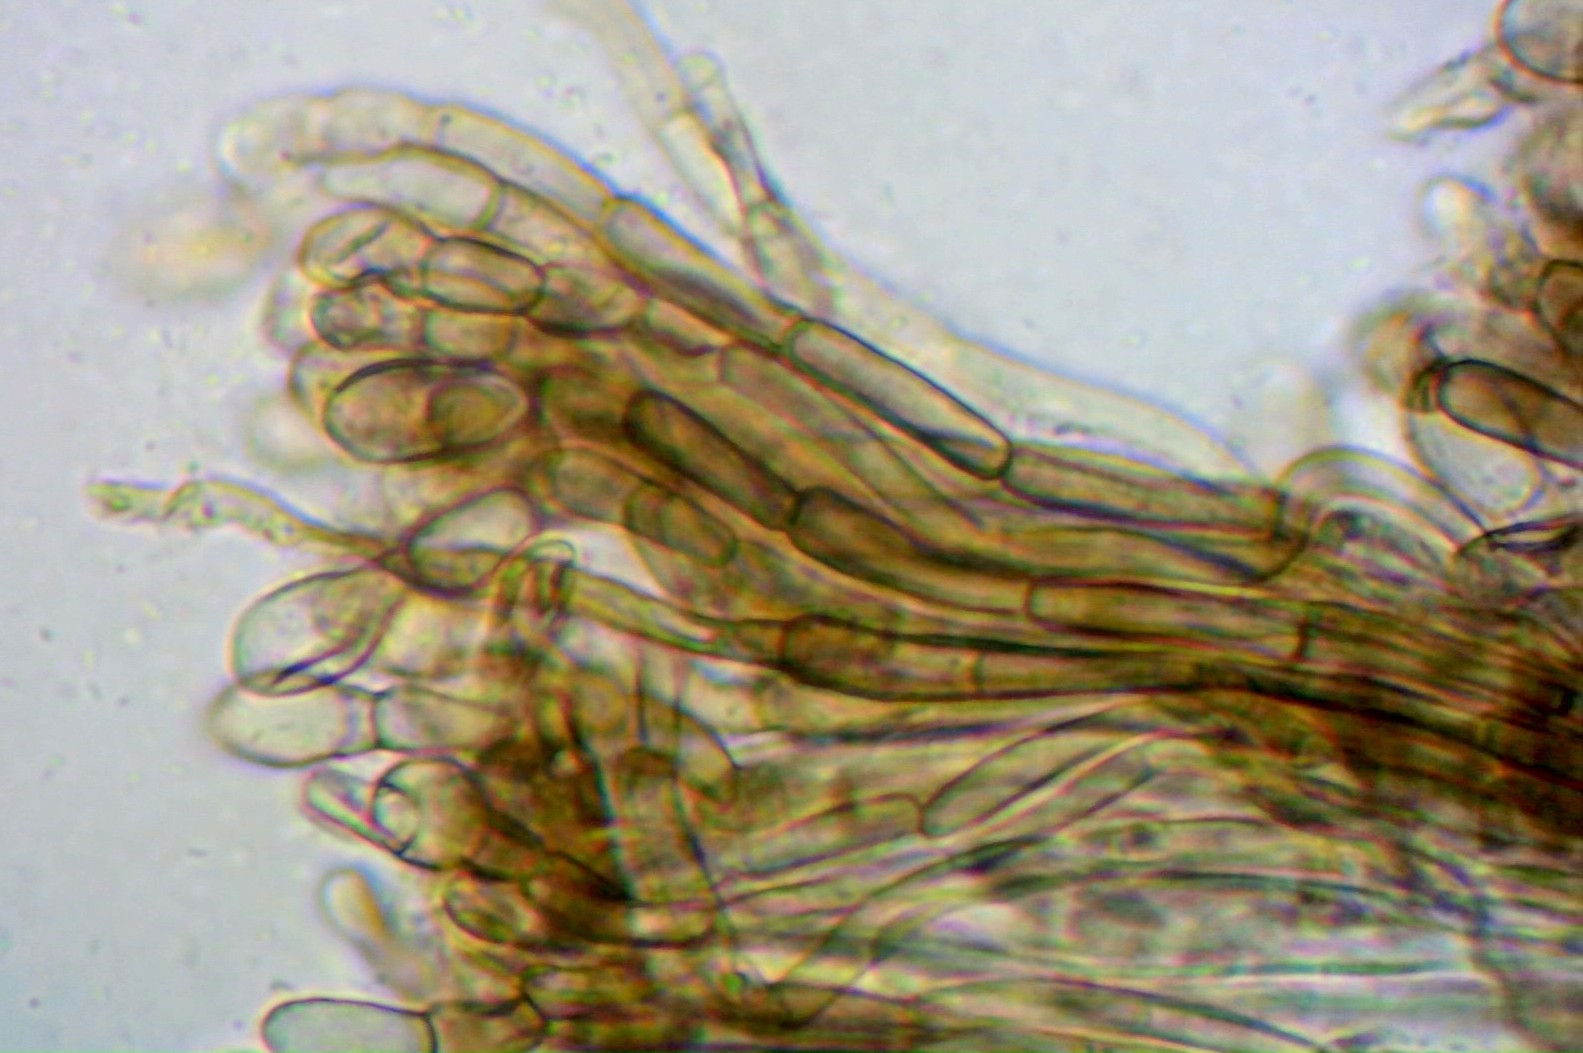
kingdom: Fungi
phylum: Ascomycota
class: Geoglossomycetes
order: Geoglossales
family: Geoglossaceae
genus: Geoglossum
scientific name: Geoglossum cookeianum
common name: bred jordtunge
